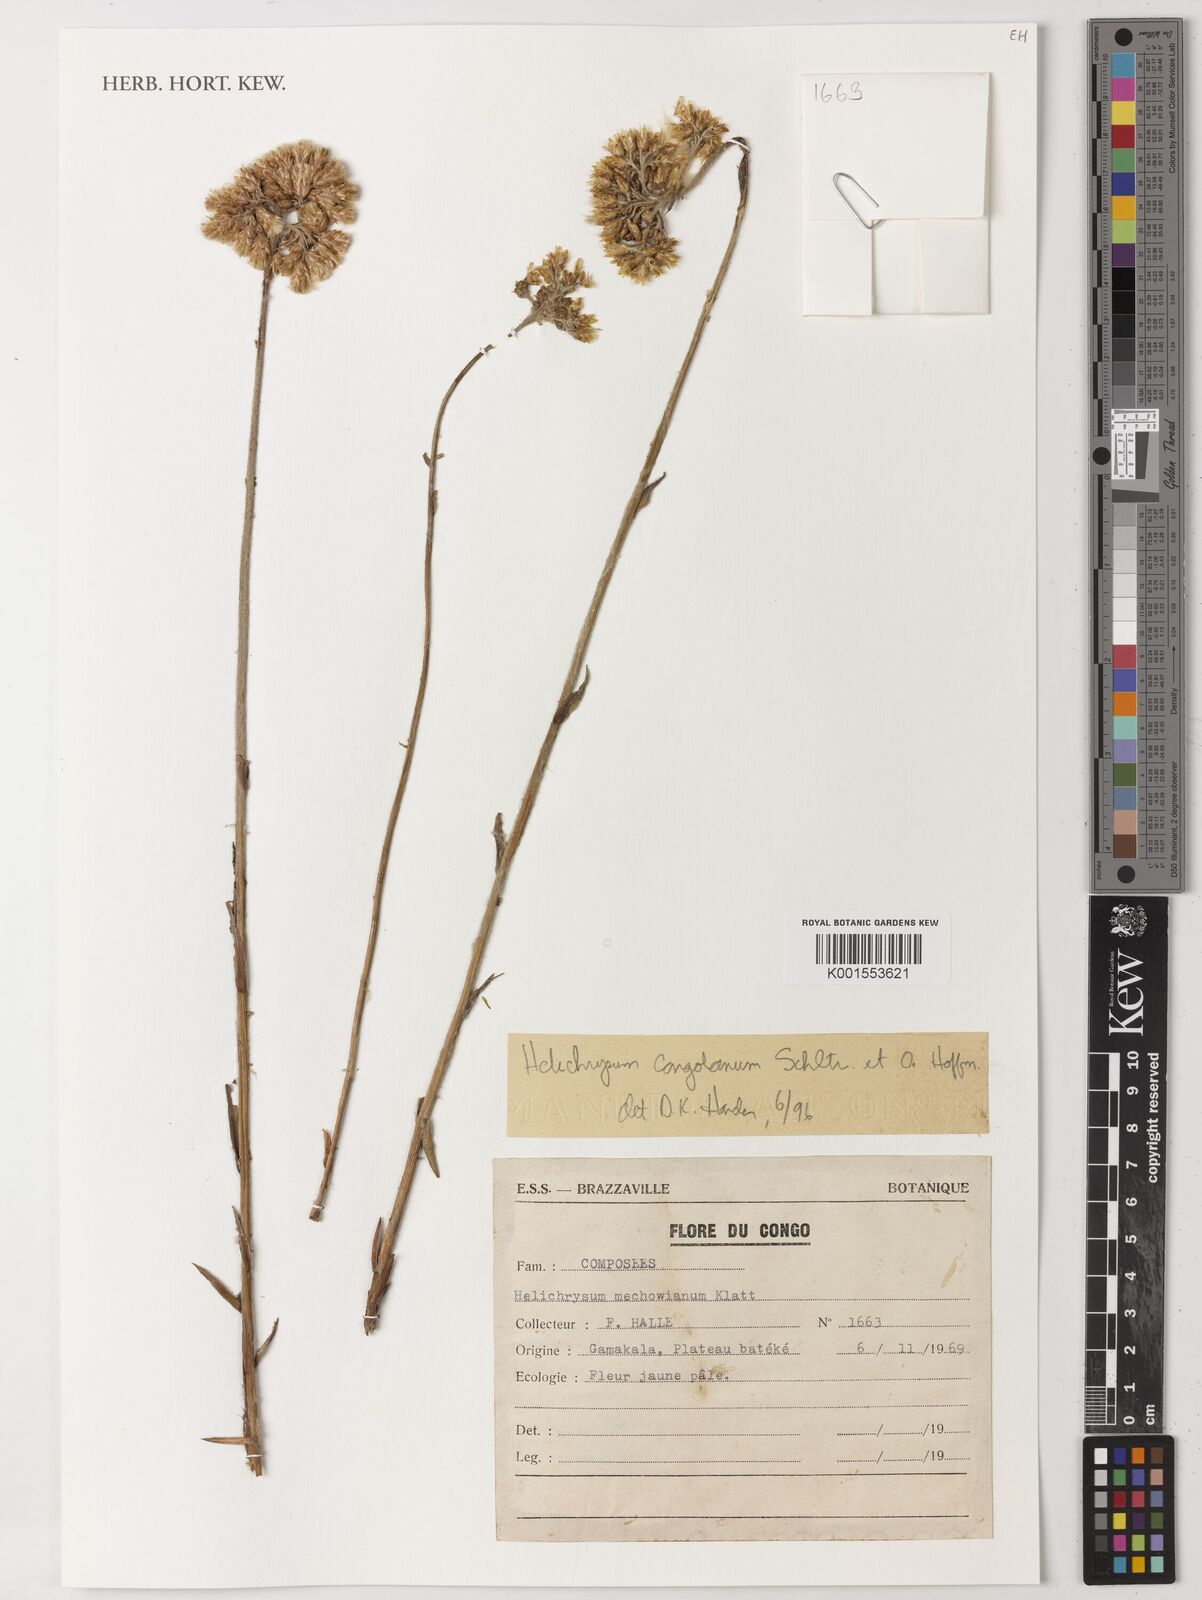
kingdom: Plantae
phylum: Tracheophyta
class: Magnoliopsida
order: Asterales
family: Asteraceae
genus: Helichrysum
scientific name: Helichrysum congolanum
